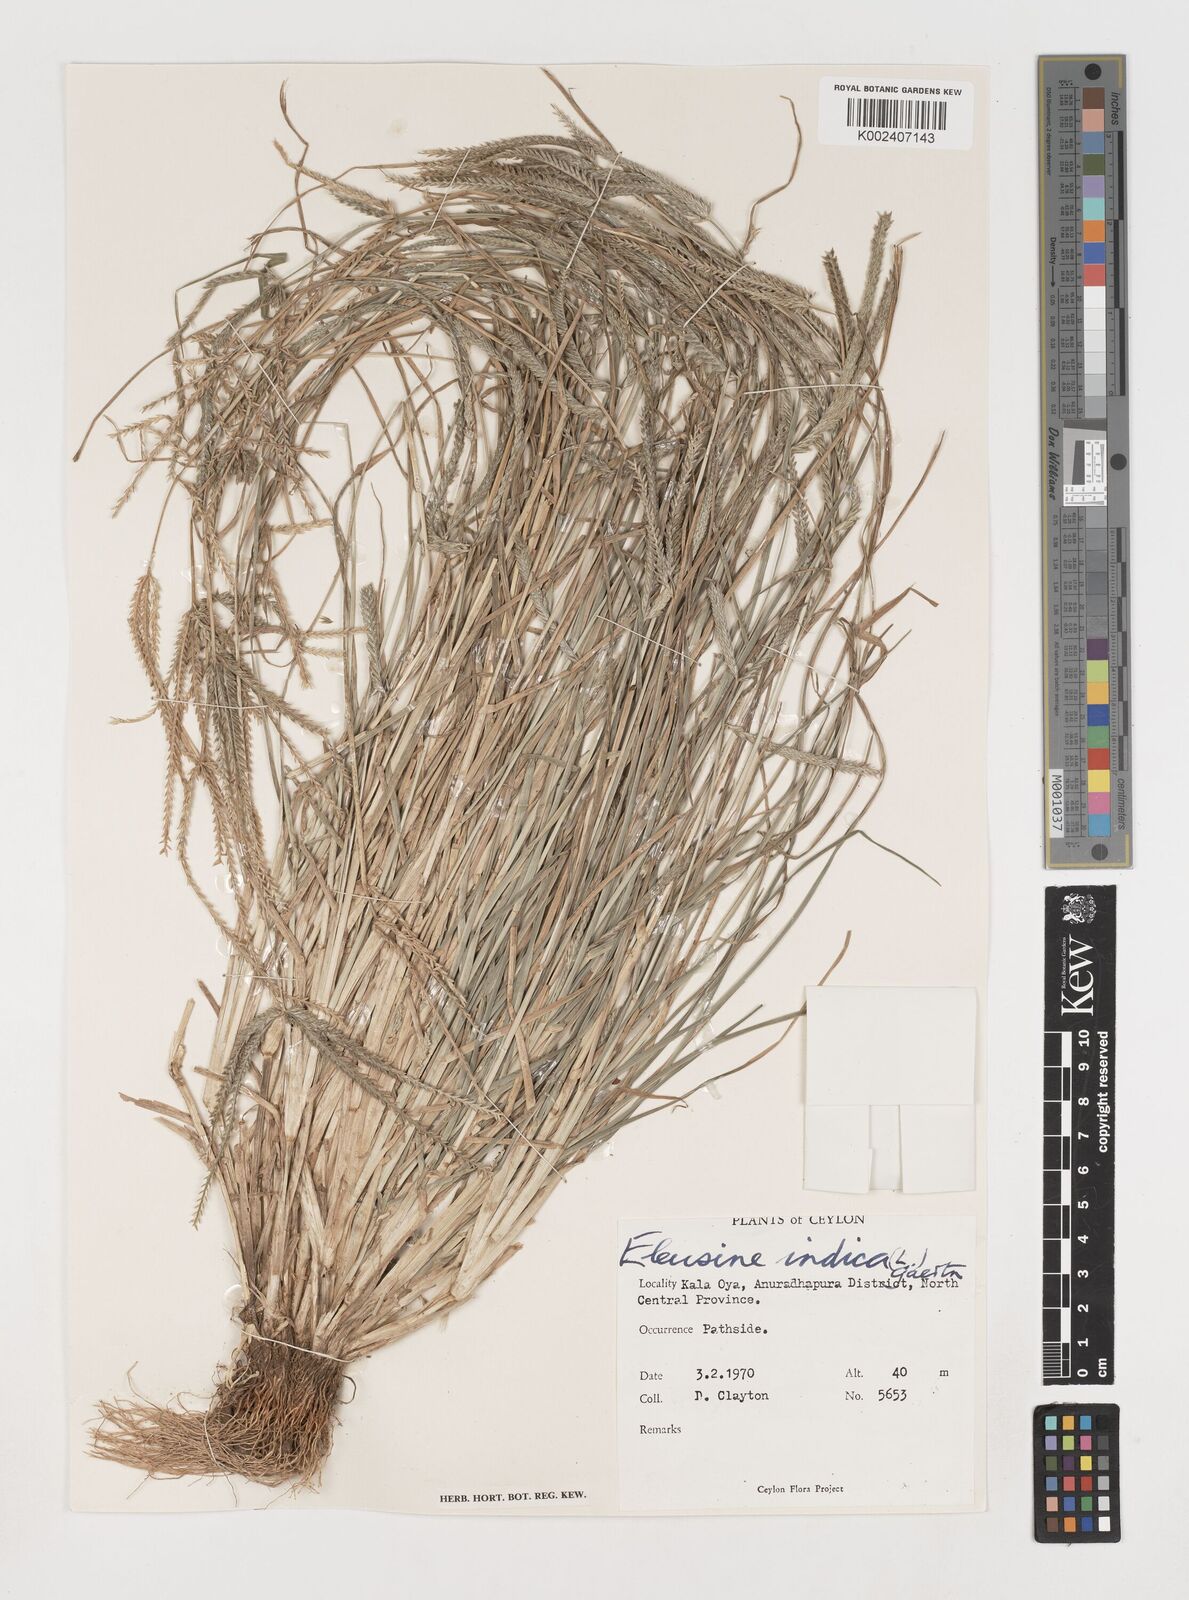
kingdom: Plantae
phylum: Tracheophyta
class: Liliopsida
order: Poales
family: Poaceae
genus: Eleusine
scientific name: Eleusine indica
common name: Yard-grass
